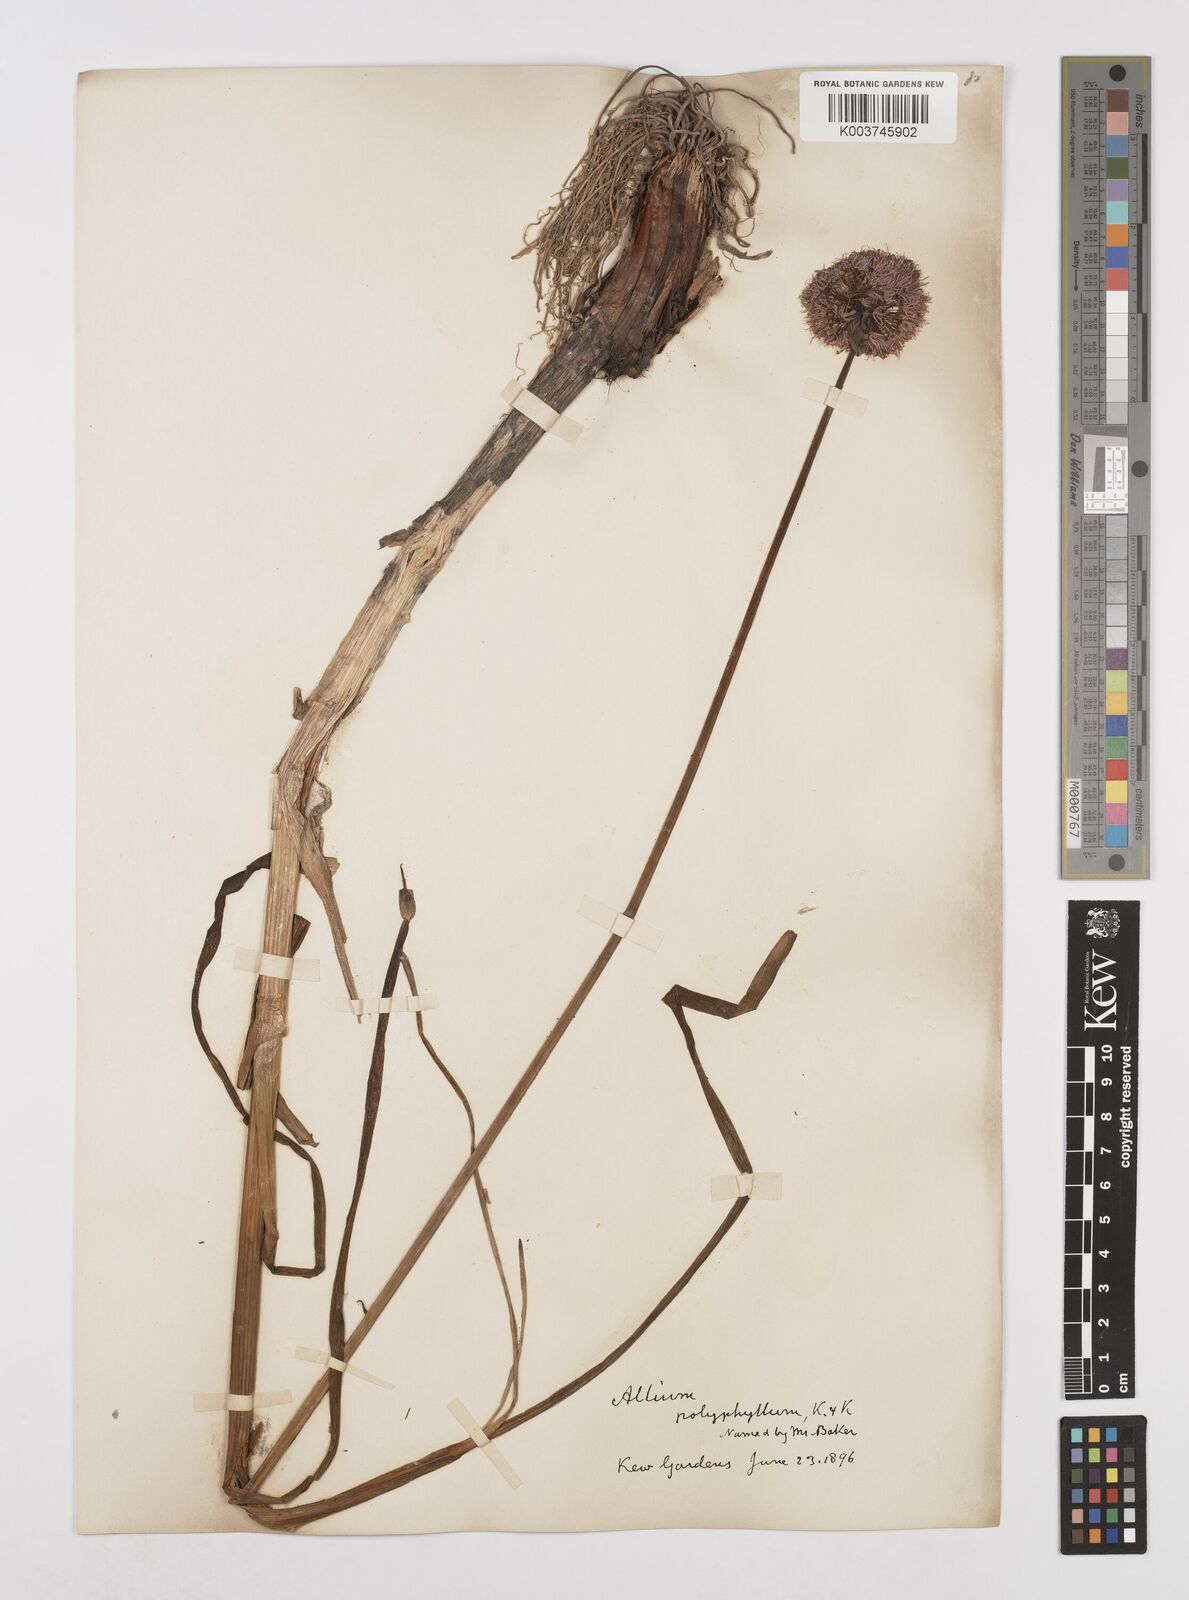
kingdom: Plantae
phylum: Tracheophyta
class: Liliopsida
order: Asparagales
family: Amaryllidaceae
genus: Allium
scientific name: Allium
